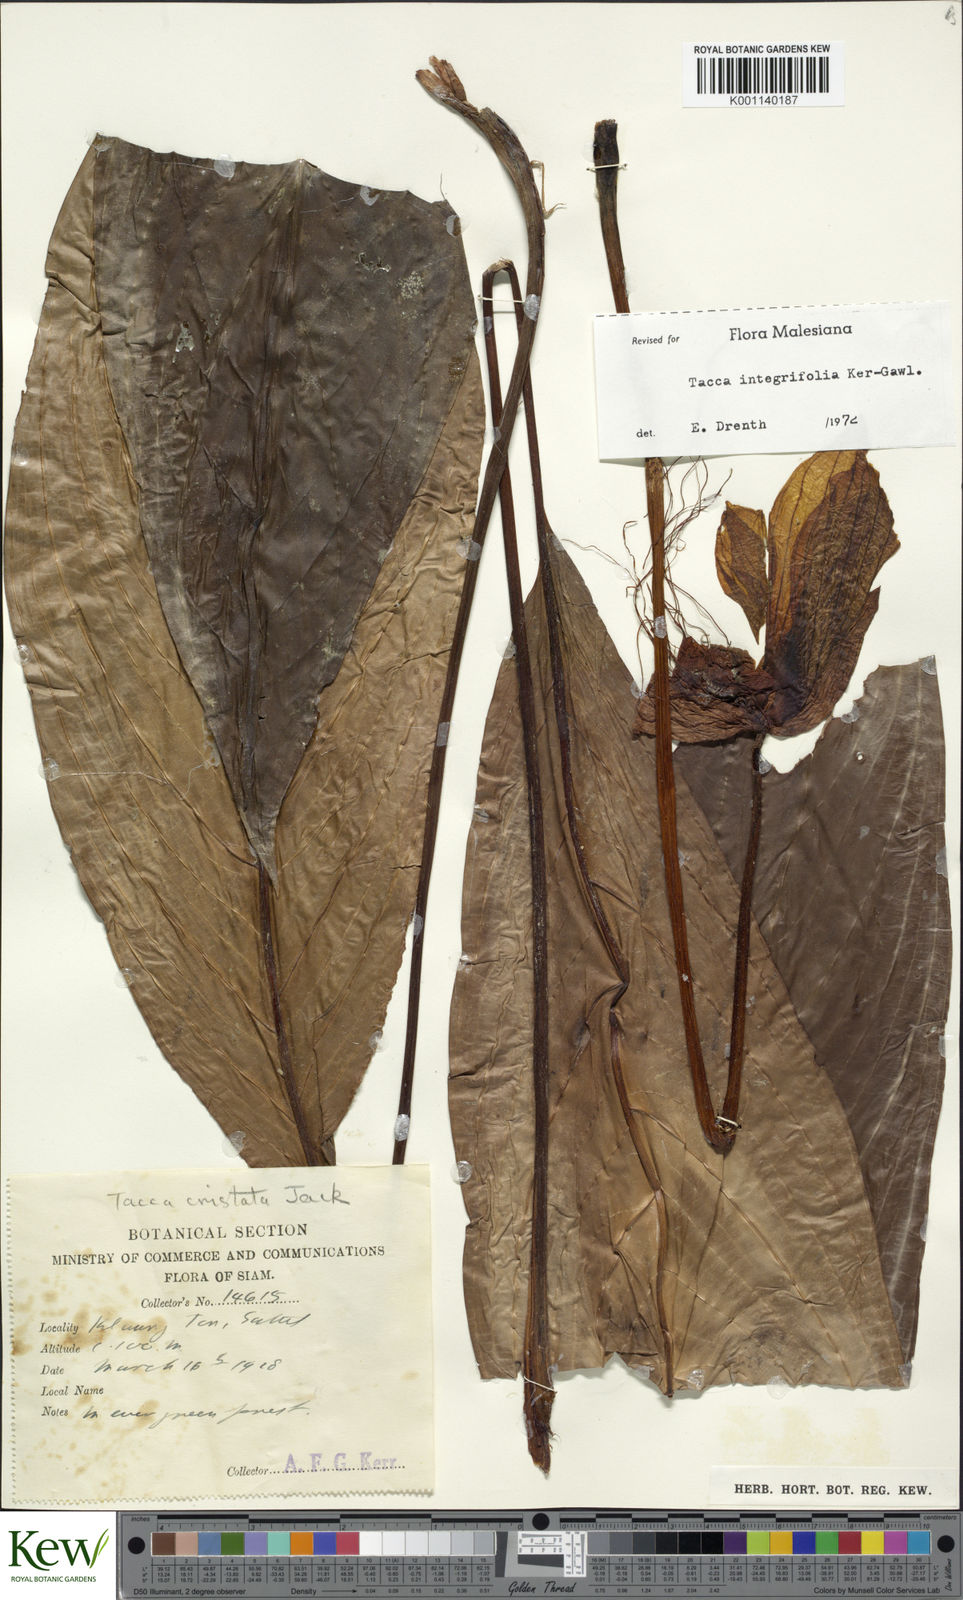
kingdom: Plantae
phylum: Tracheophyta
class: Liliopsida
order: Dioscoreales
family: Dioscoreaceae
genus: Tacca
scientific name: Tacca integrifolia
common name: Batplant
